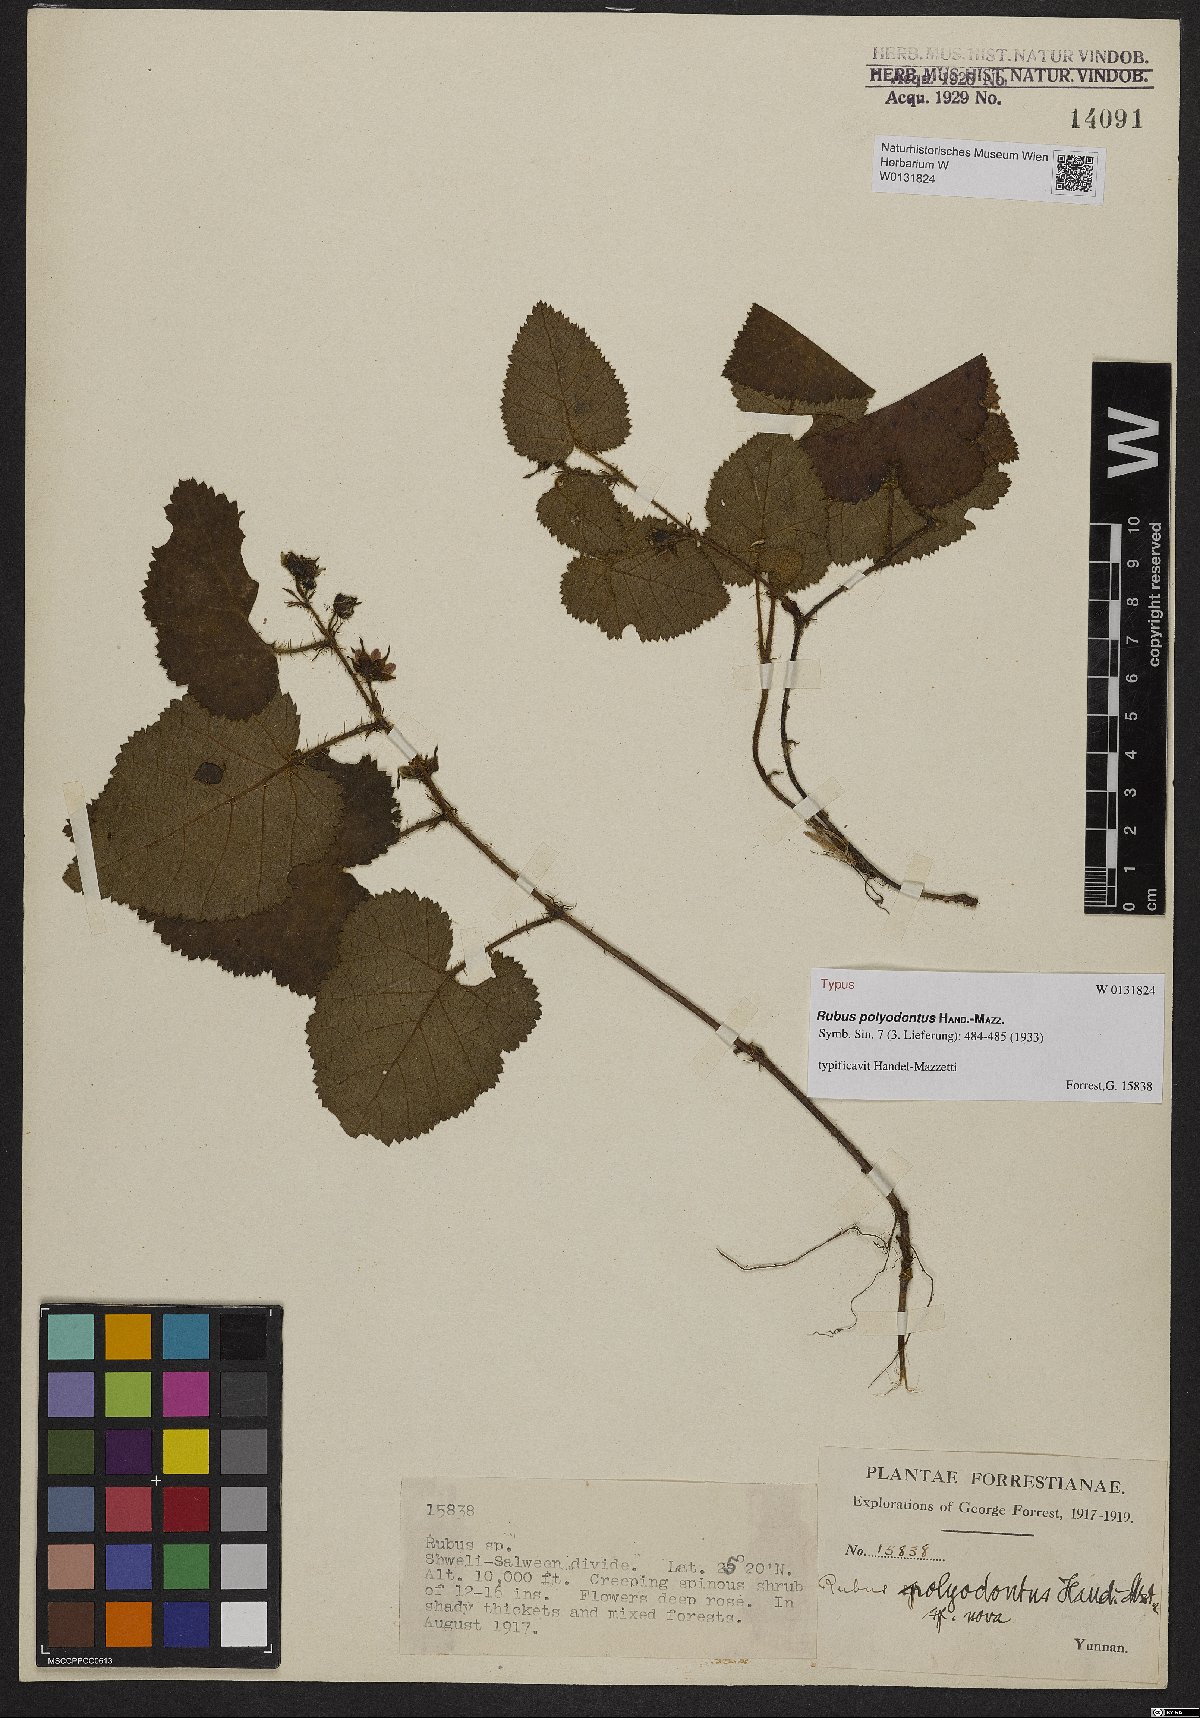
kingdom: Plantae
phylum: Tracheophyta
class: Magnoliopsida
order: Rosales
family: Rosaceae
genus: Rubus
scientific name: Rubus polyodontus
